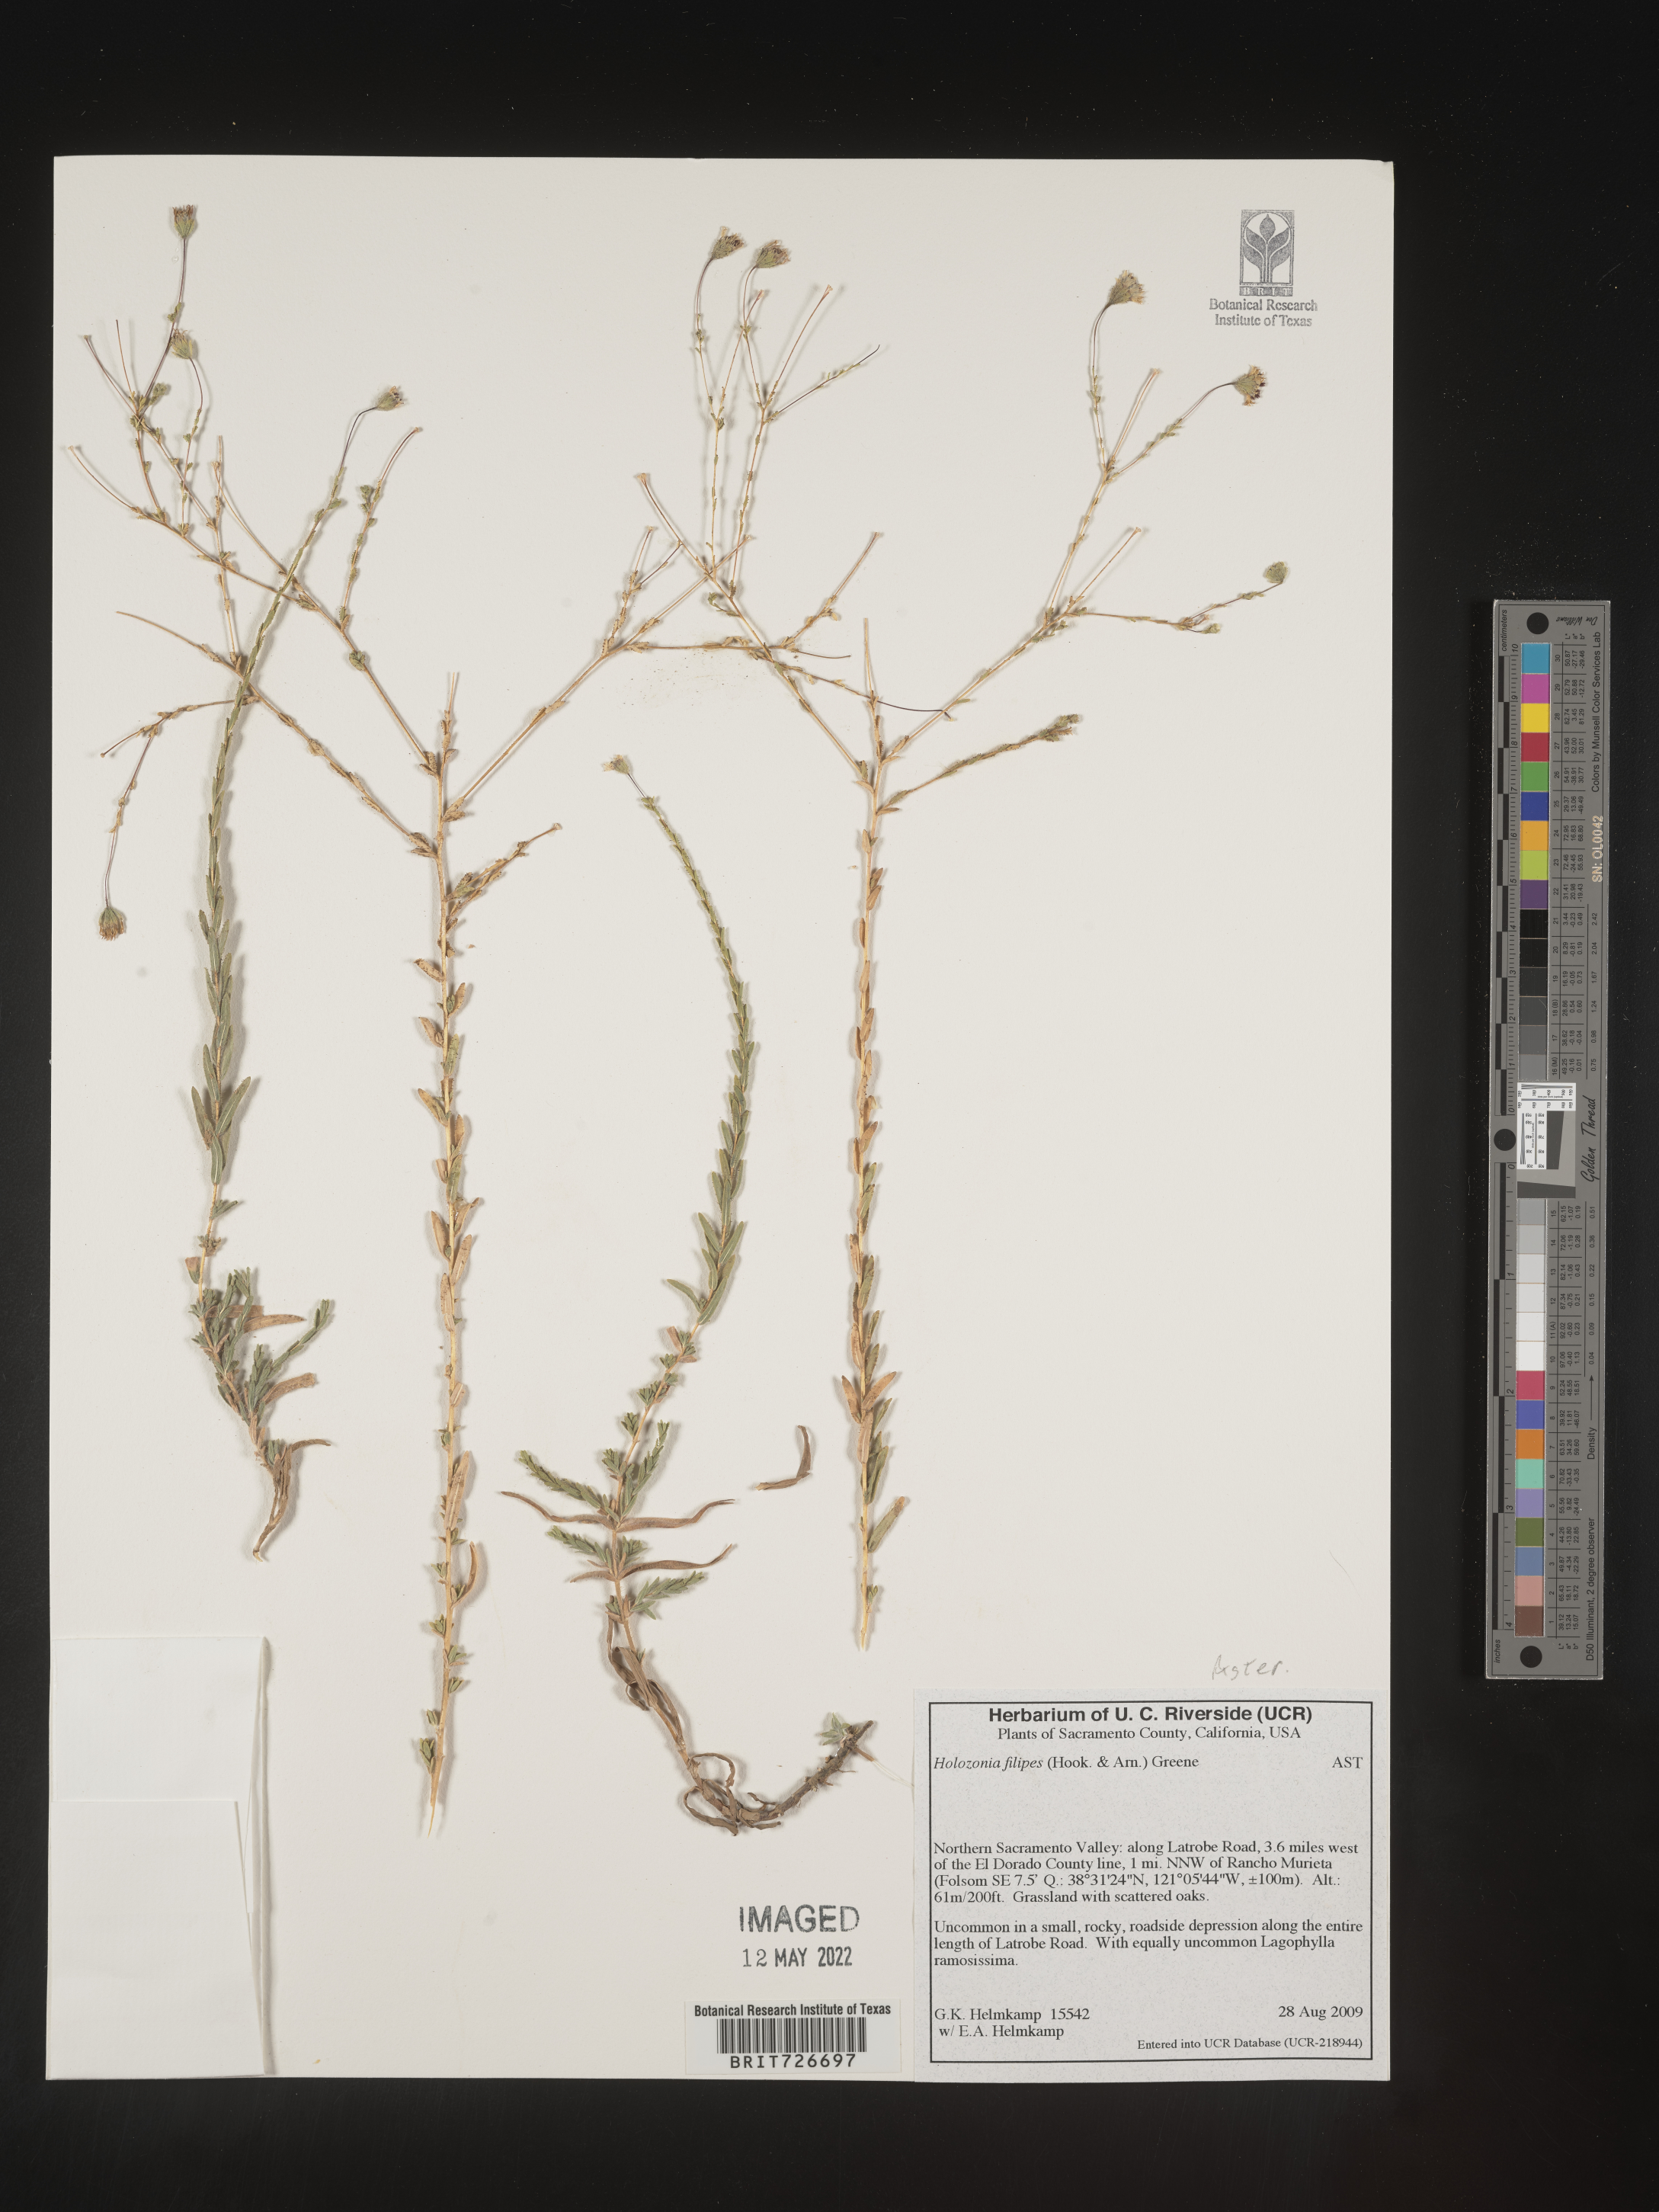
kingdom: Plantae
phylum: Tracheophyta
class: Magnoliopsida
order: Asterales
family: Asteraceae
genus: Holozonia
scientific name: Holozonia
